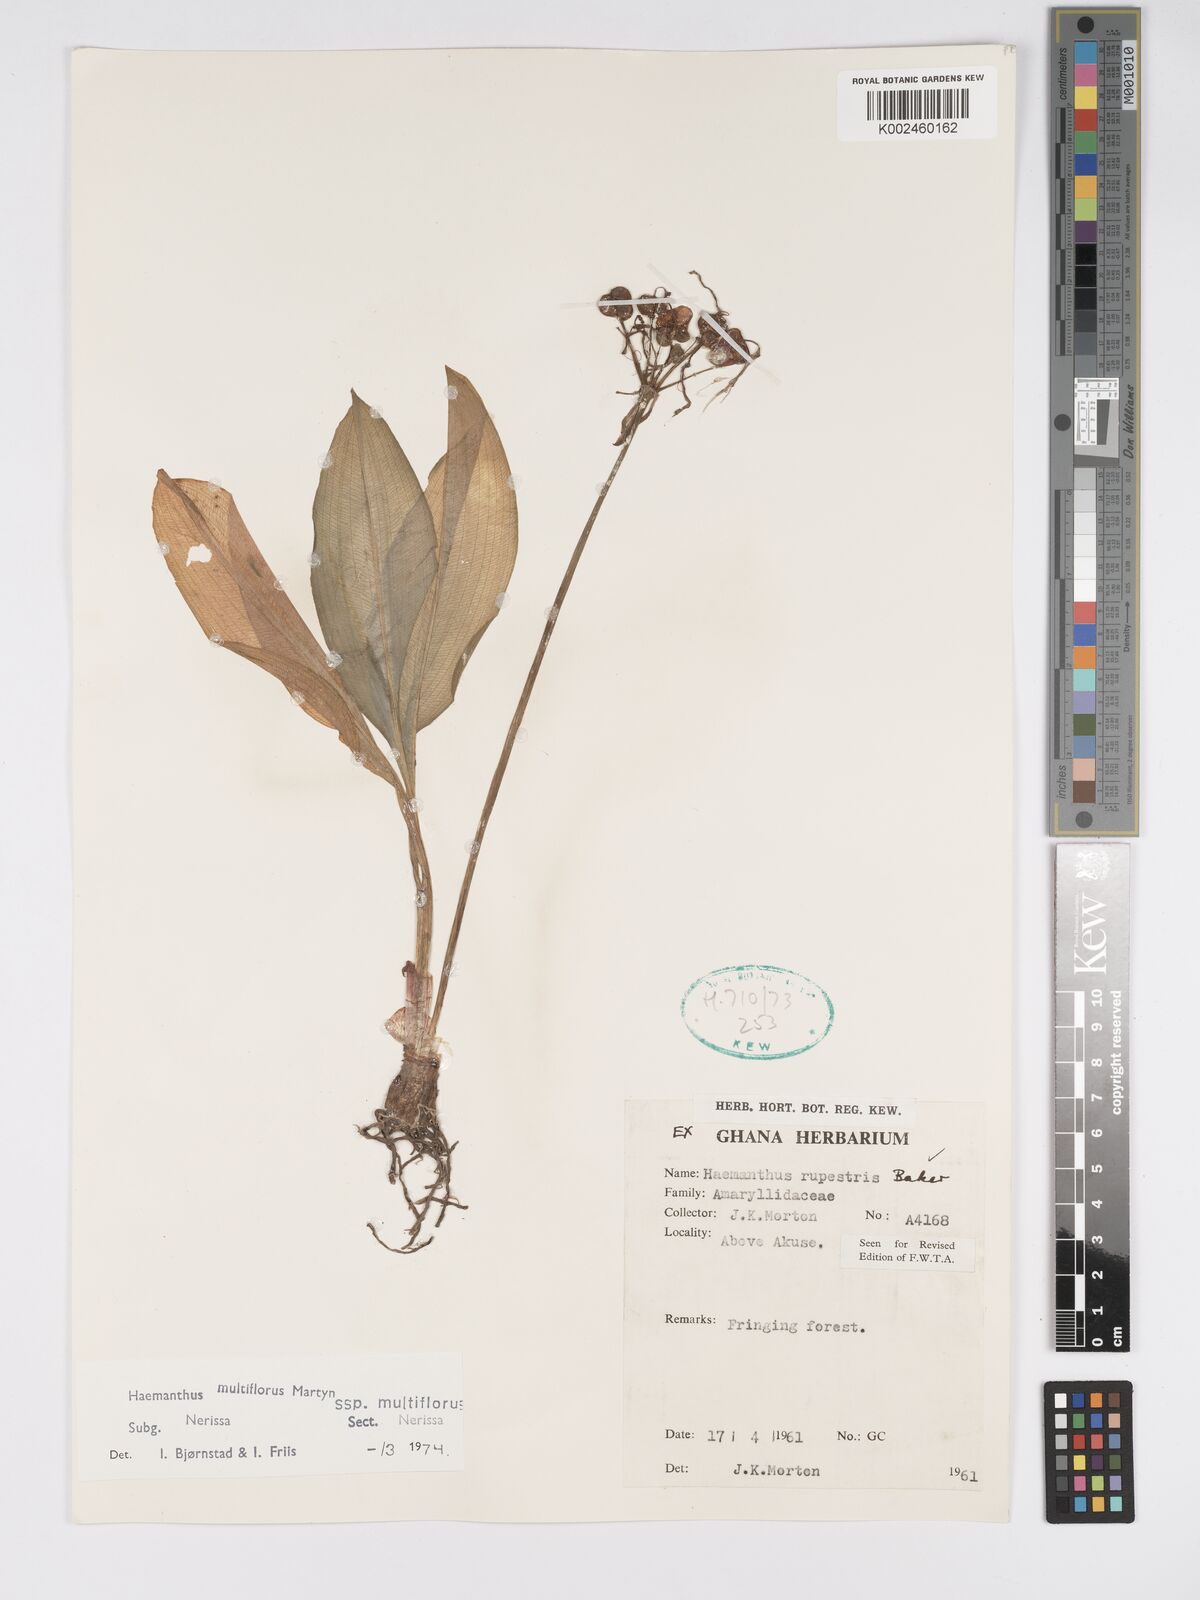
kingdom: Plantae
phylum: Tracheophyta
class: Liliopsida
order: Asparagales
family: Amaryllidaceae
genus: Scadoxus
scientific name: Scadoxus multiflorus
